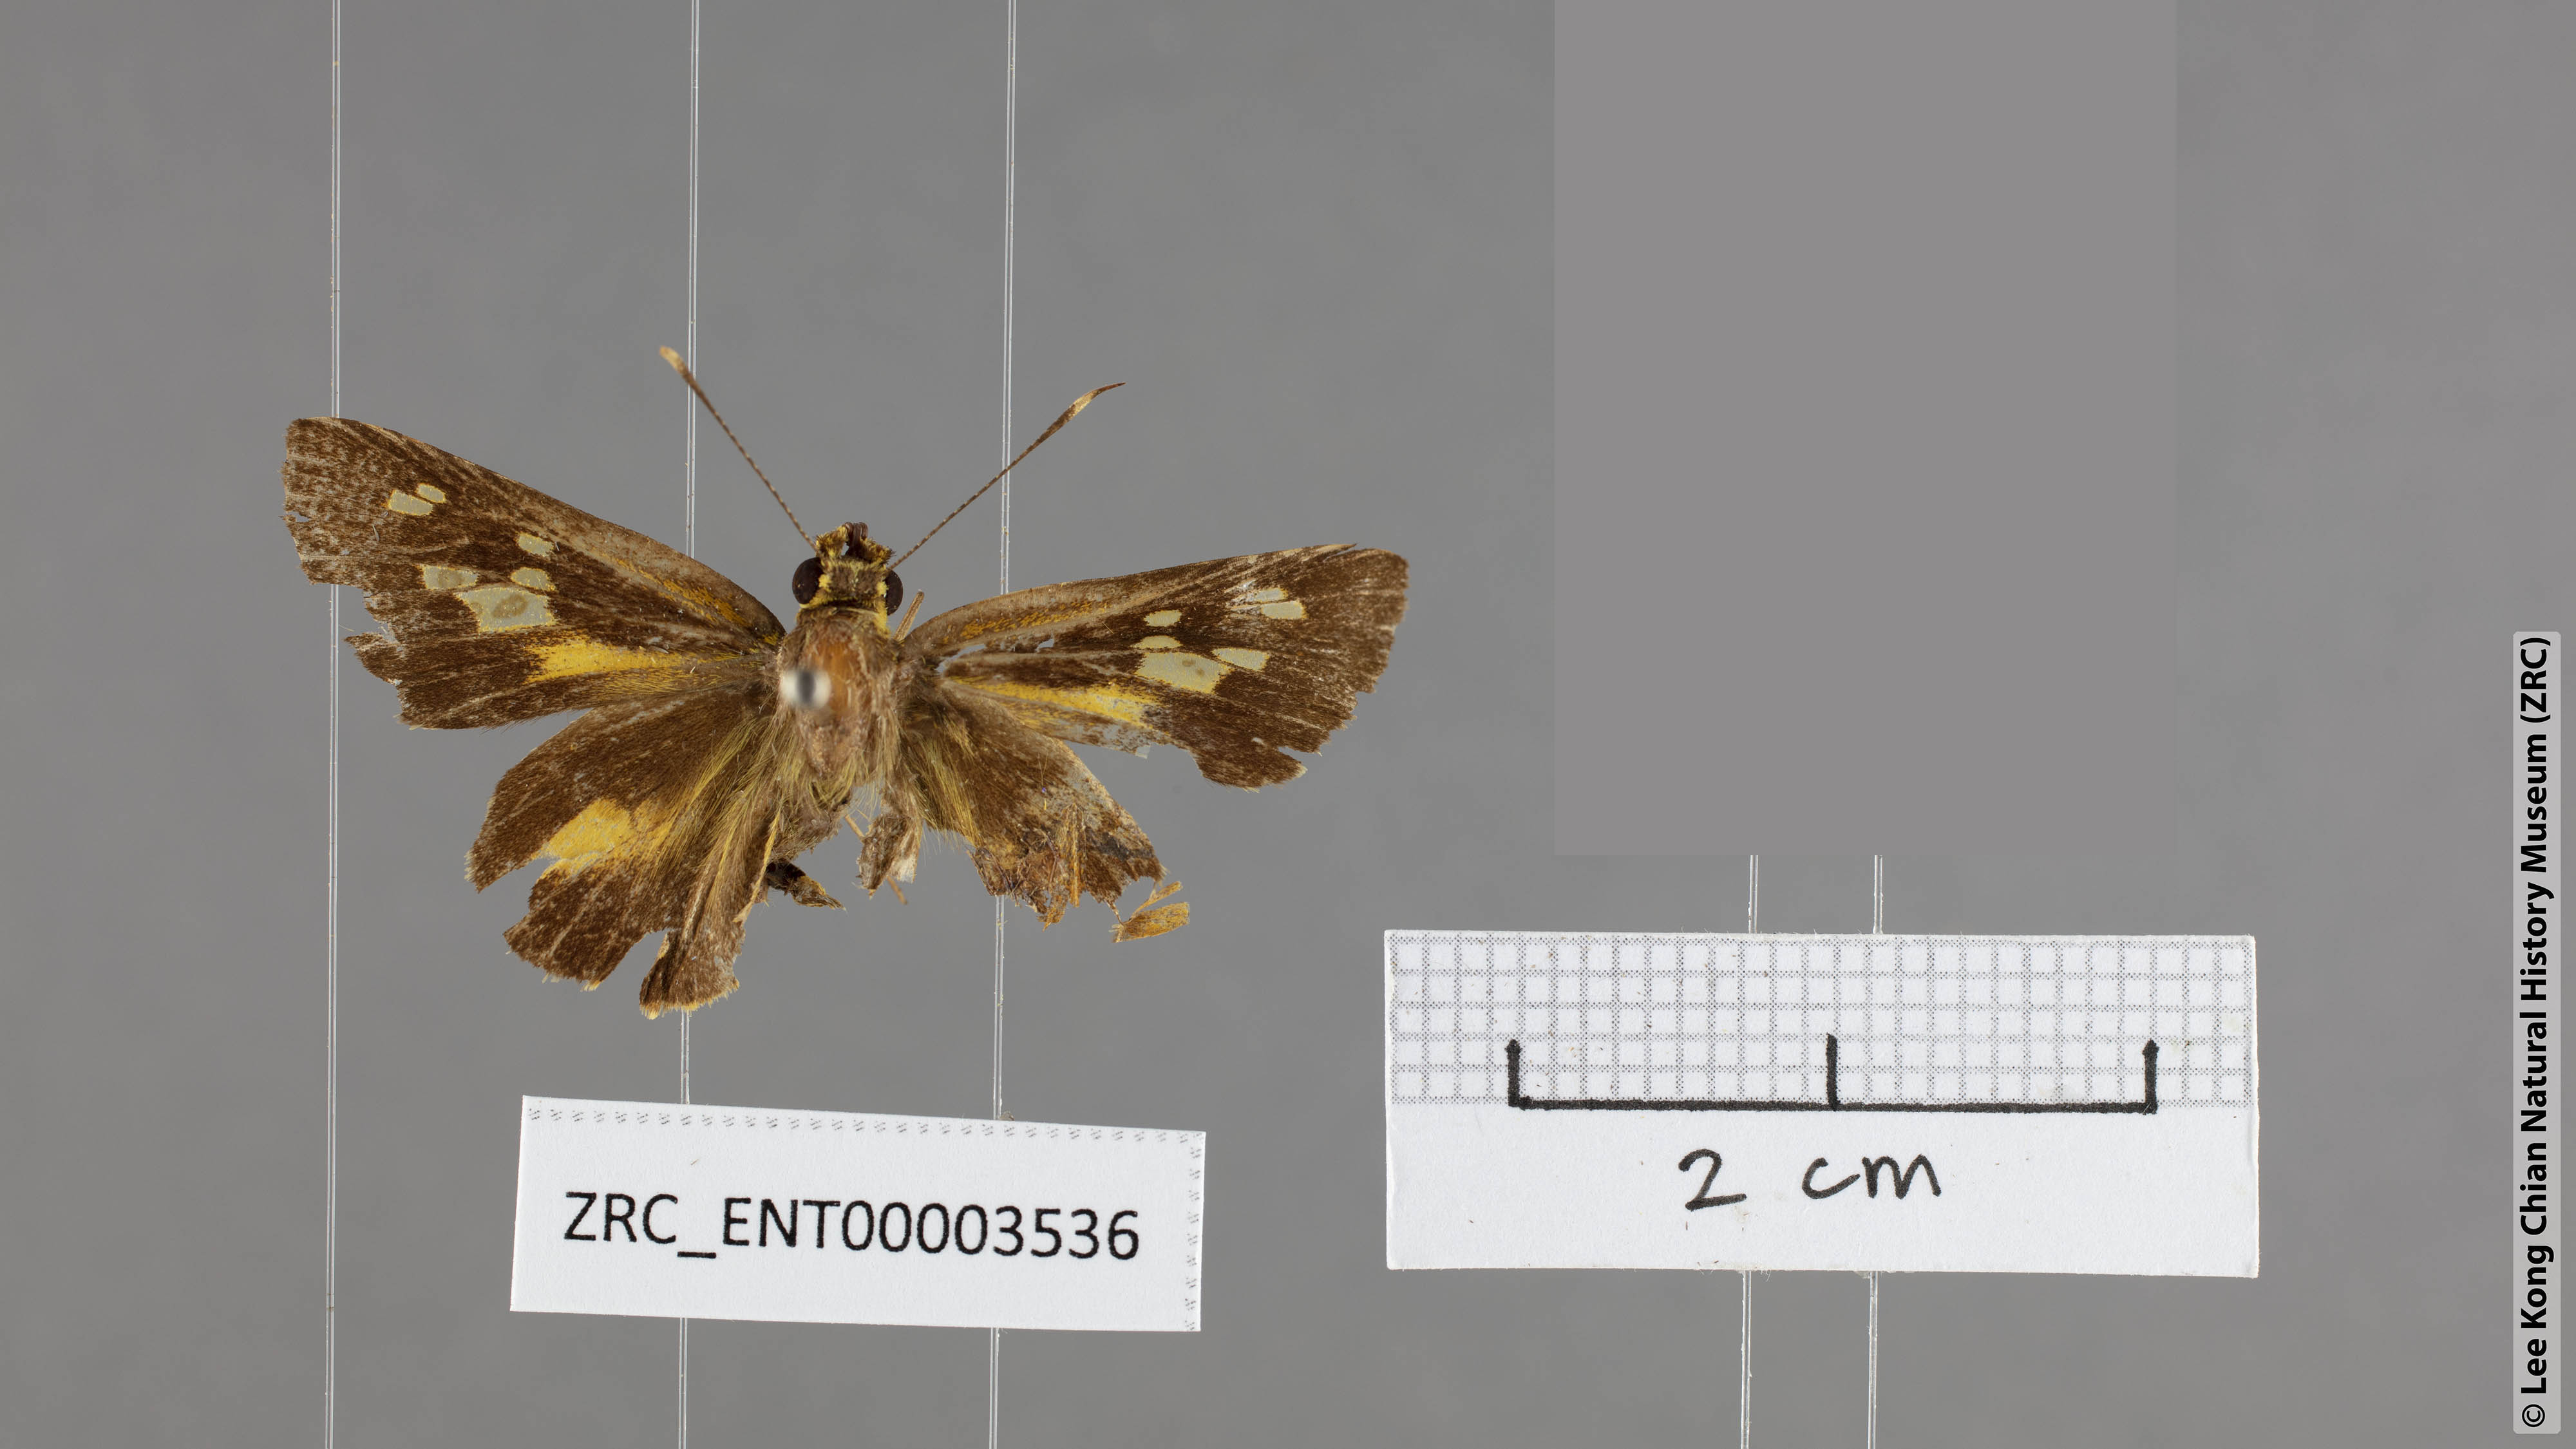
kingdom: Animalia
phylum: Arthropoda
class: Insecta
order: Lepidoptera
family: Hesperiidae
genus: Salanoemia
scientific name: Salanoemia tavoyana
